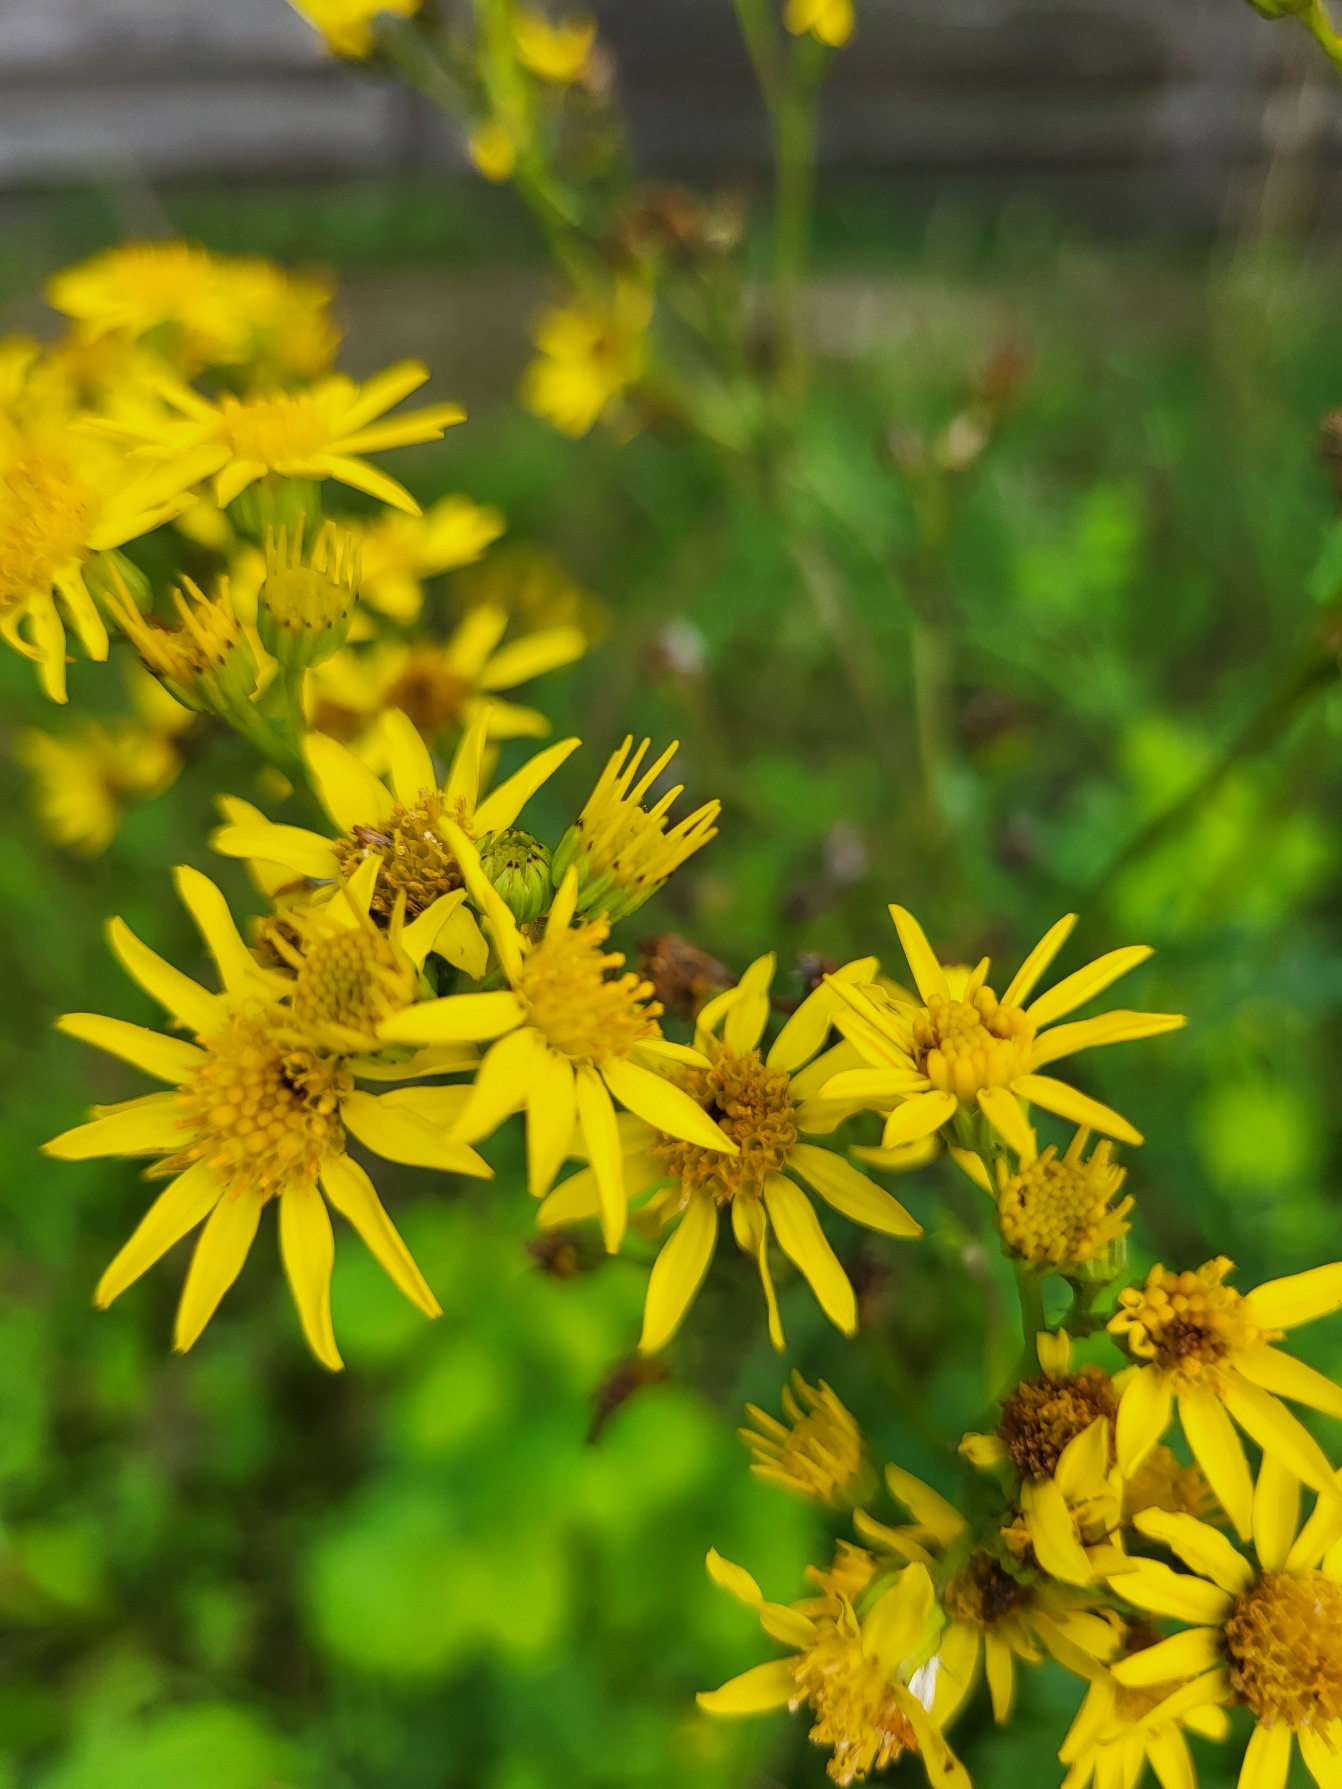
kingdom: Plantae
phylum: Tracheophyta
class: Magnoliopsida
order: Asterales
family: Asteraceae
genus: Jacobaea
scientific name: Jacobaea vulgaris
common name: Eng-brandbæger
